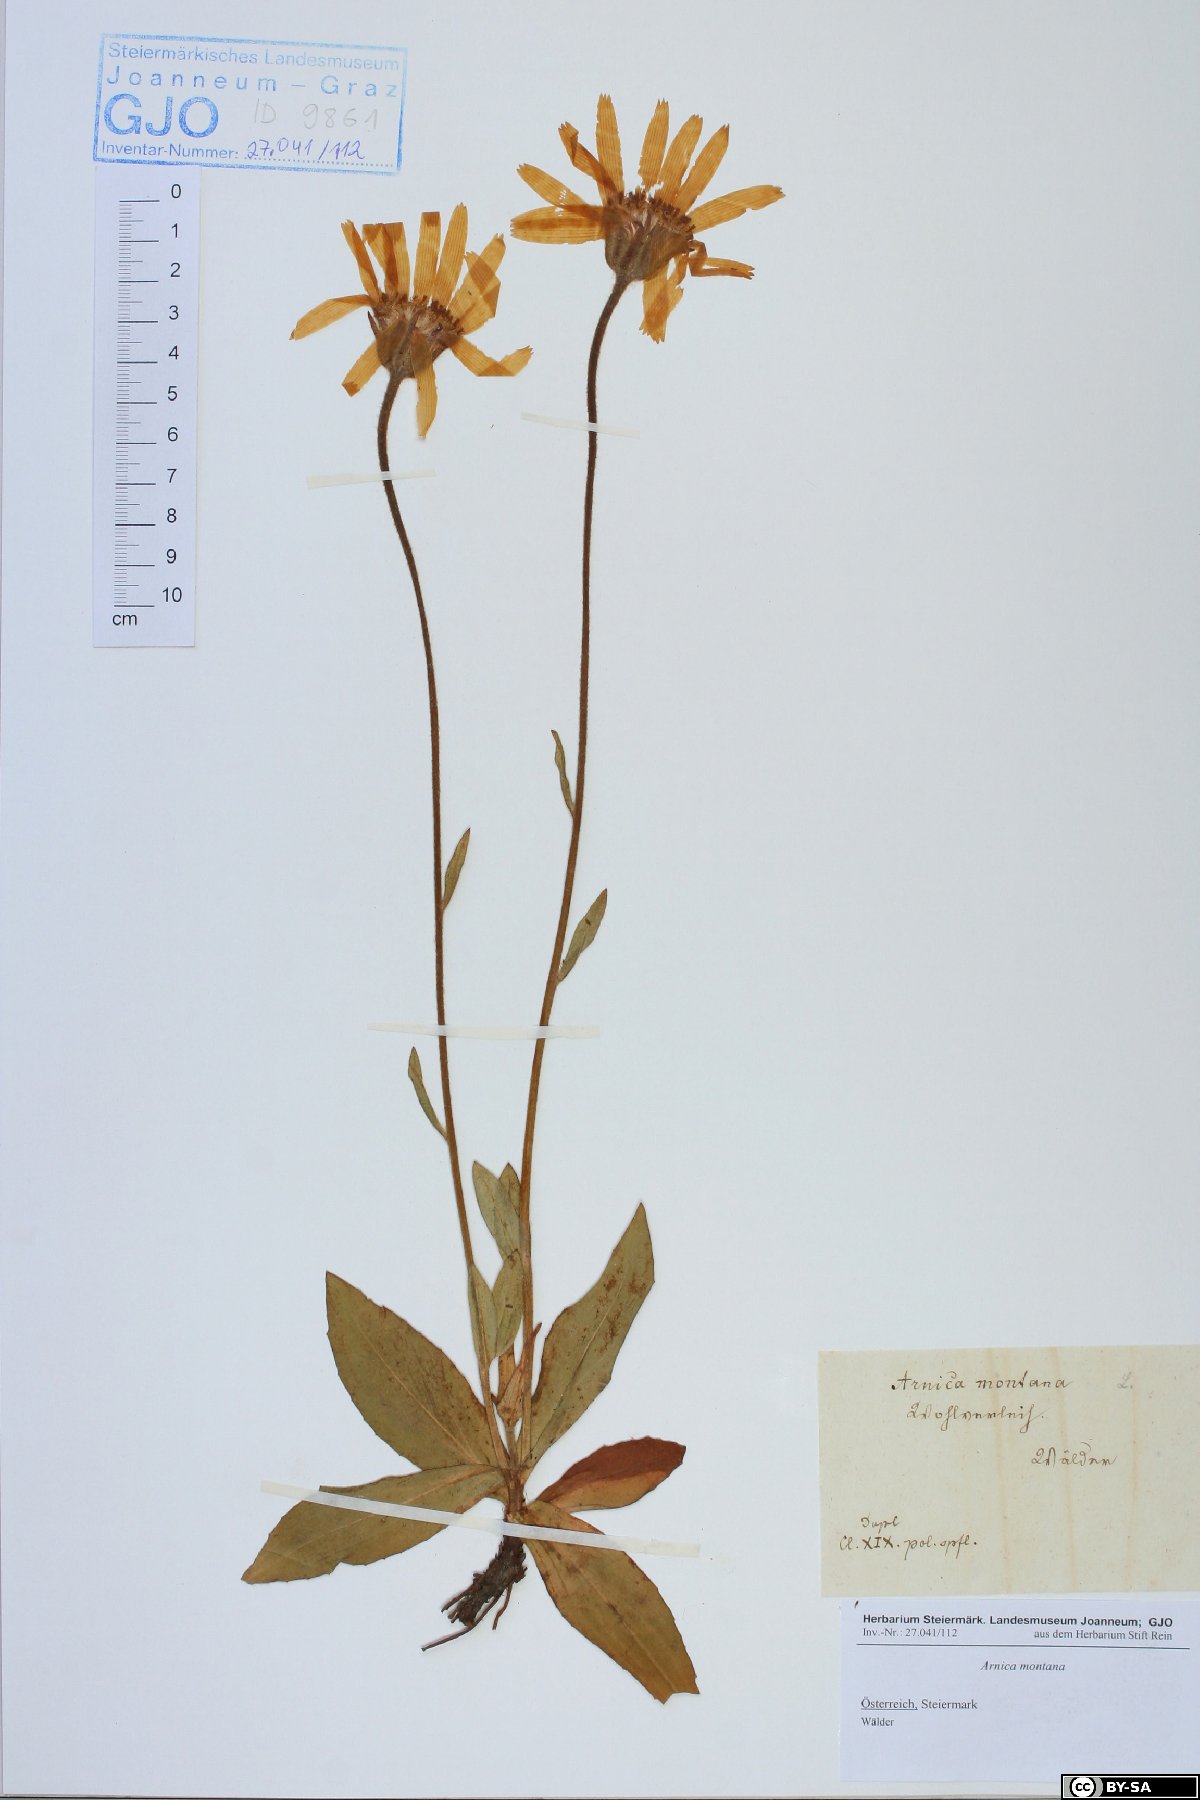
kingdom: Plantae
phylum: Tracheophyta
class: Magnoliopsida
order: Asterales
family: Asteraceae
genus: Arnica
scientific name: Arnica montana
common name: Leopard's bane
